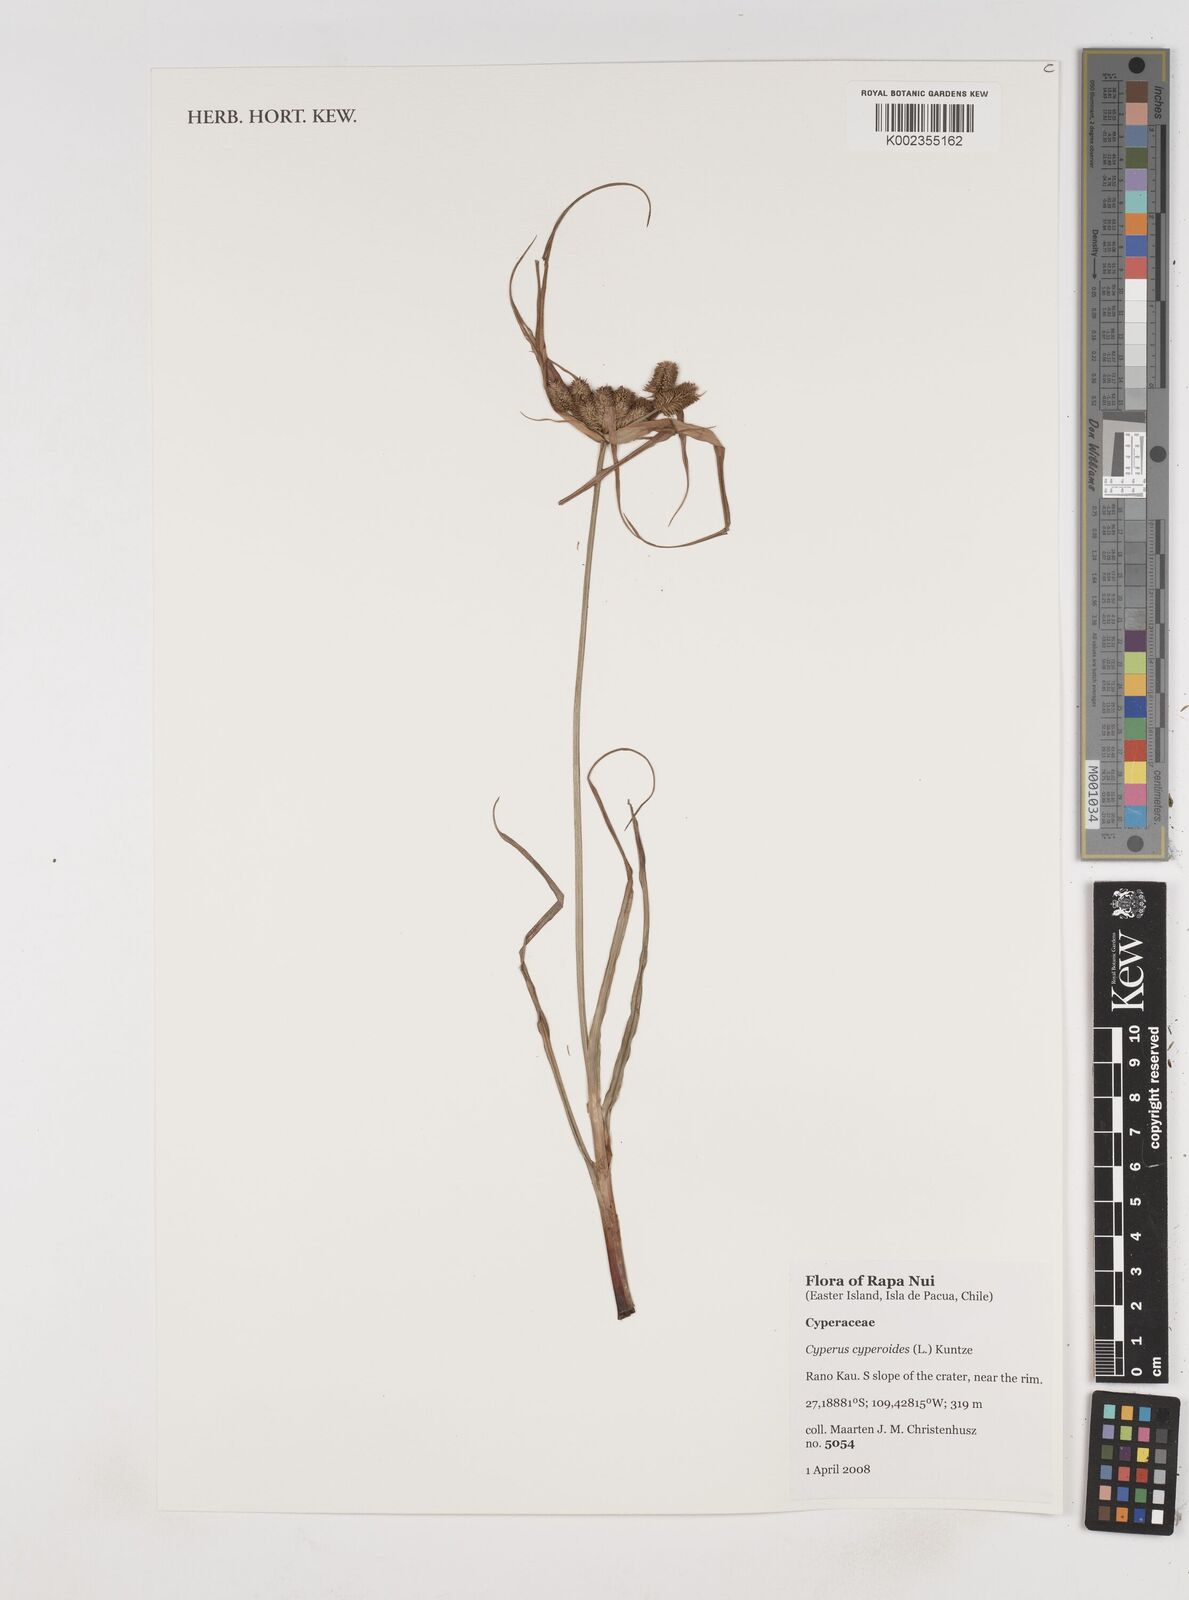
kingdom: Plantae
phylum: Tracheophyta
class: Liliopsida
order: Poales
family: Cyperaceae
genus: Cyperus
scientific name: Cyperus cyperoides
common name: Pacific island flat sedge
